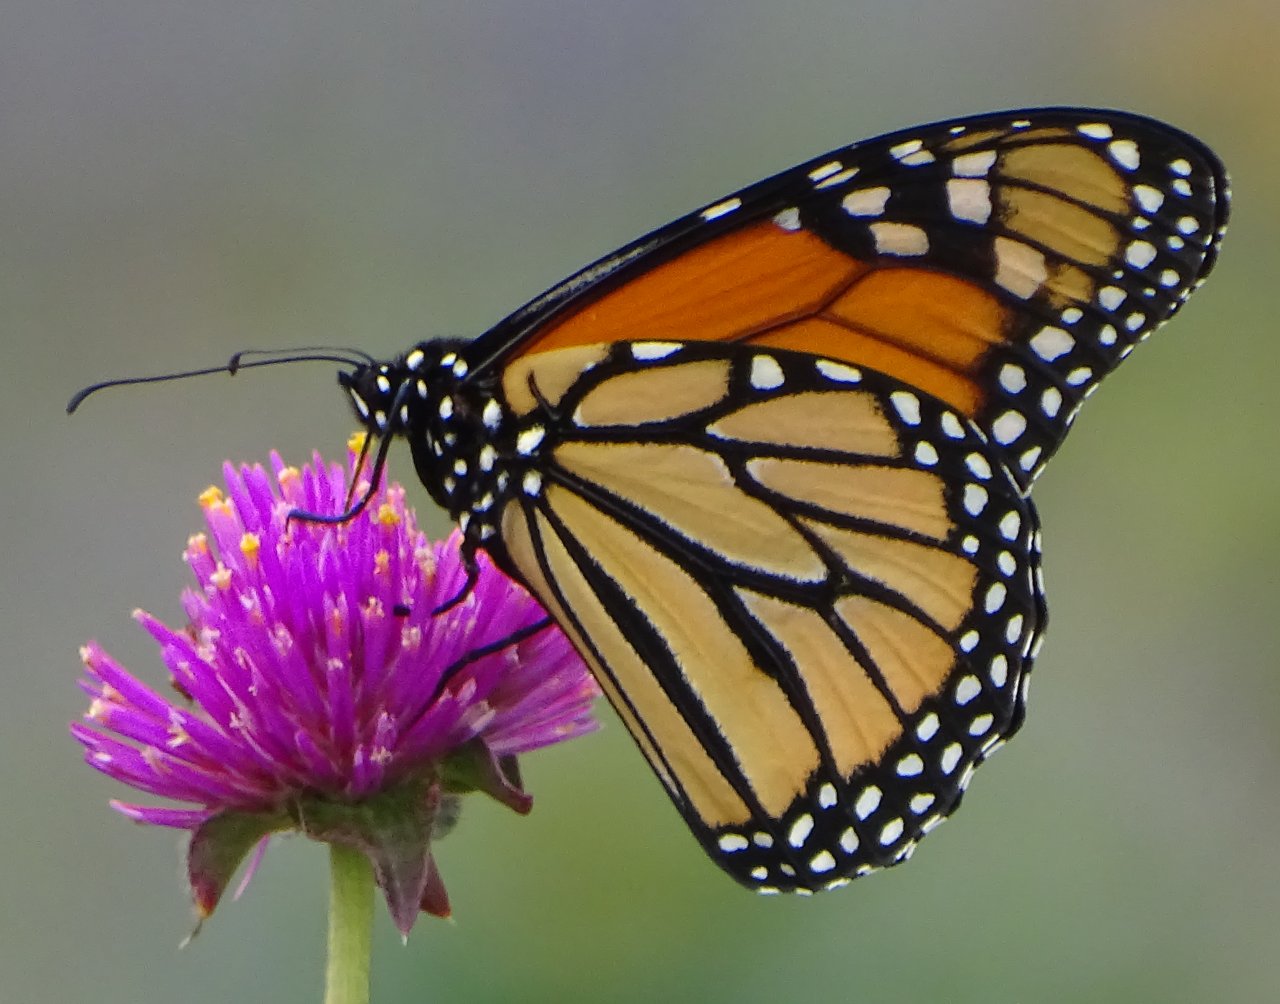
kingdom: Animalia
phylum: Arthropoda
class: Insecta
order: Lepidoptera
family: Nymphalidae
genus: Danaus
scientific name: Danaus plexippus
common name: Monarch
